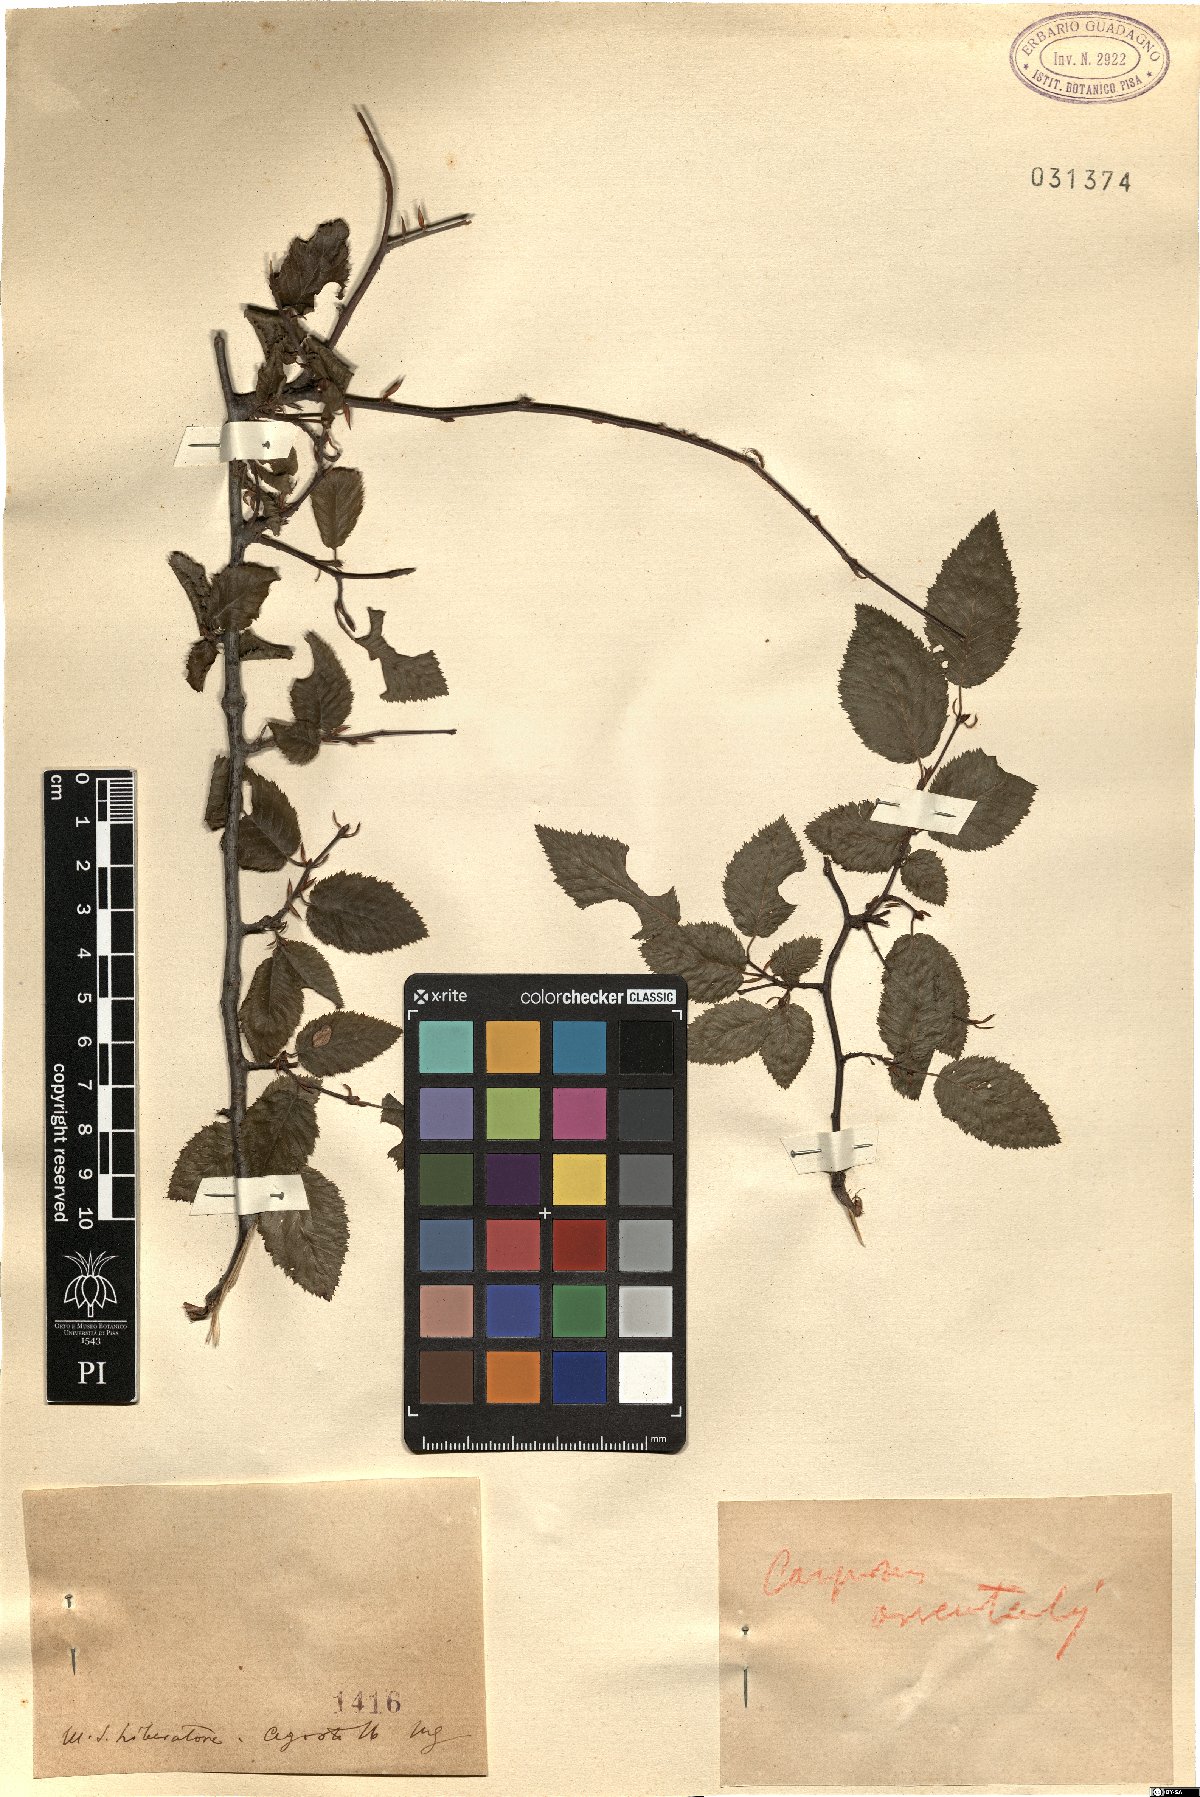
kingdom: Plantae
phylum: Tracheophyta
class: Magnoliopsida
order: Fagales
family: Betulaceae
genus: Carpinus
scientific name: Carpinus orientalis
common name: Eastern hornbeam
